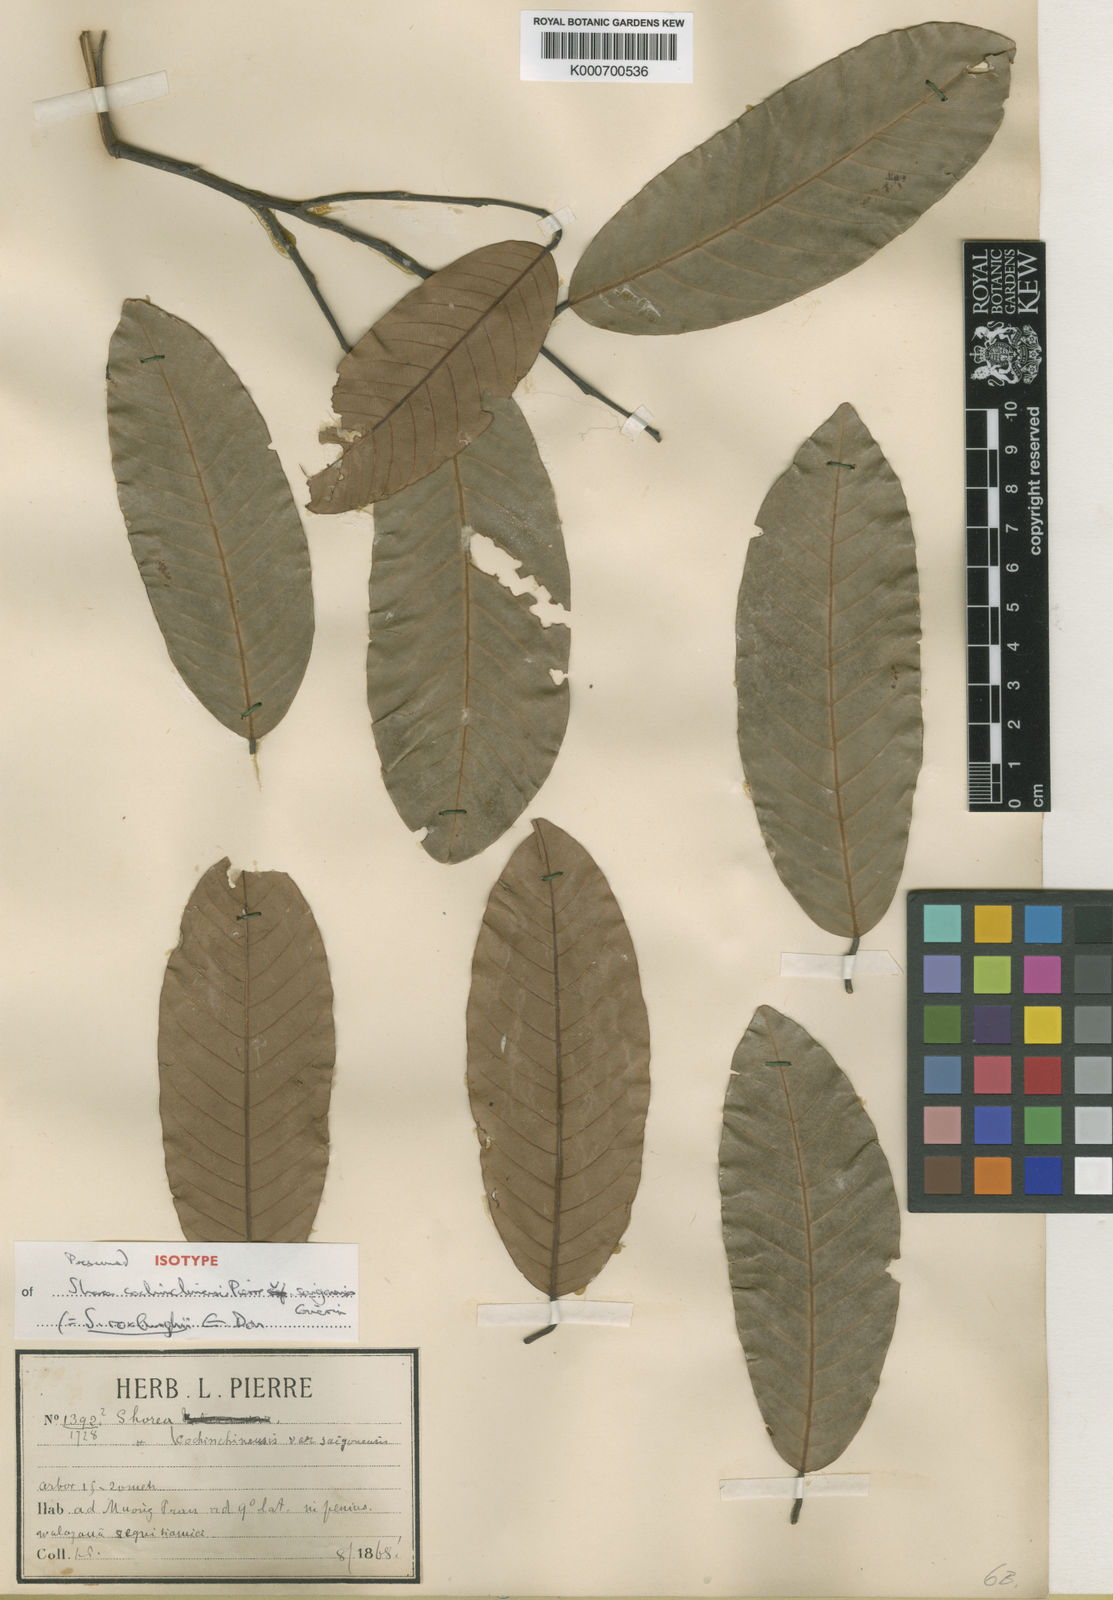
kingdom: Plantae
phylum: Tracheophyta
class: Magnoliopsida
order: Malvales
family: Dipterocarpaceae
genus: Anthoshorea
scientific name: Anthoshorea roxburghii
